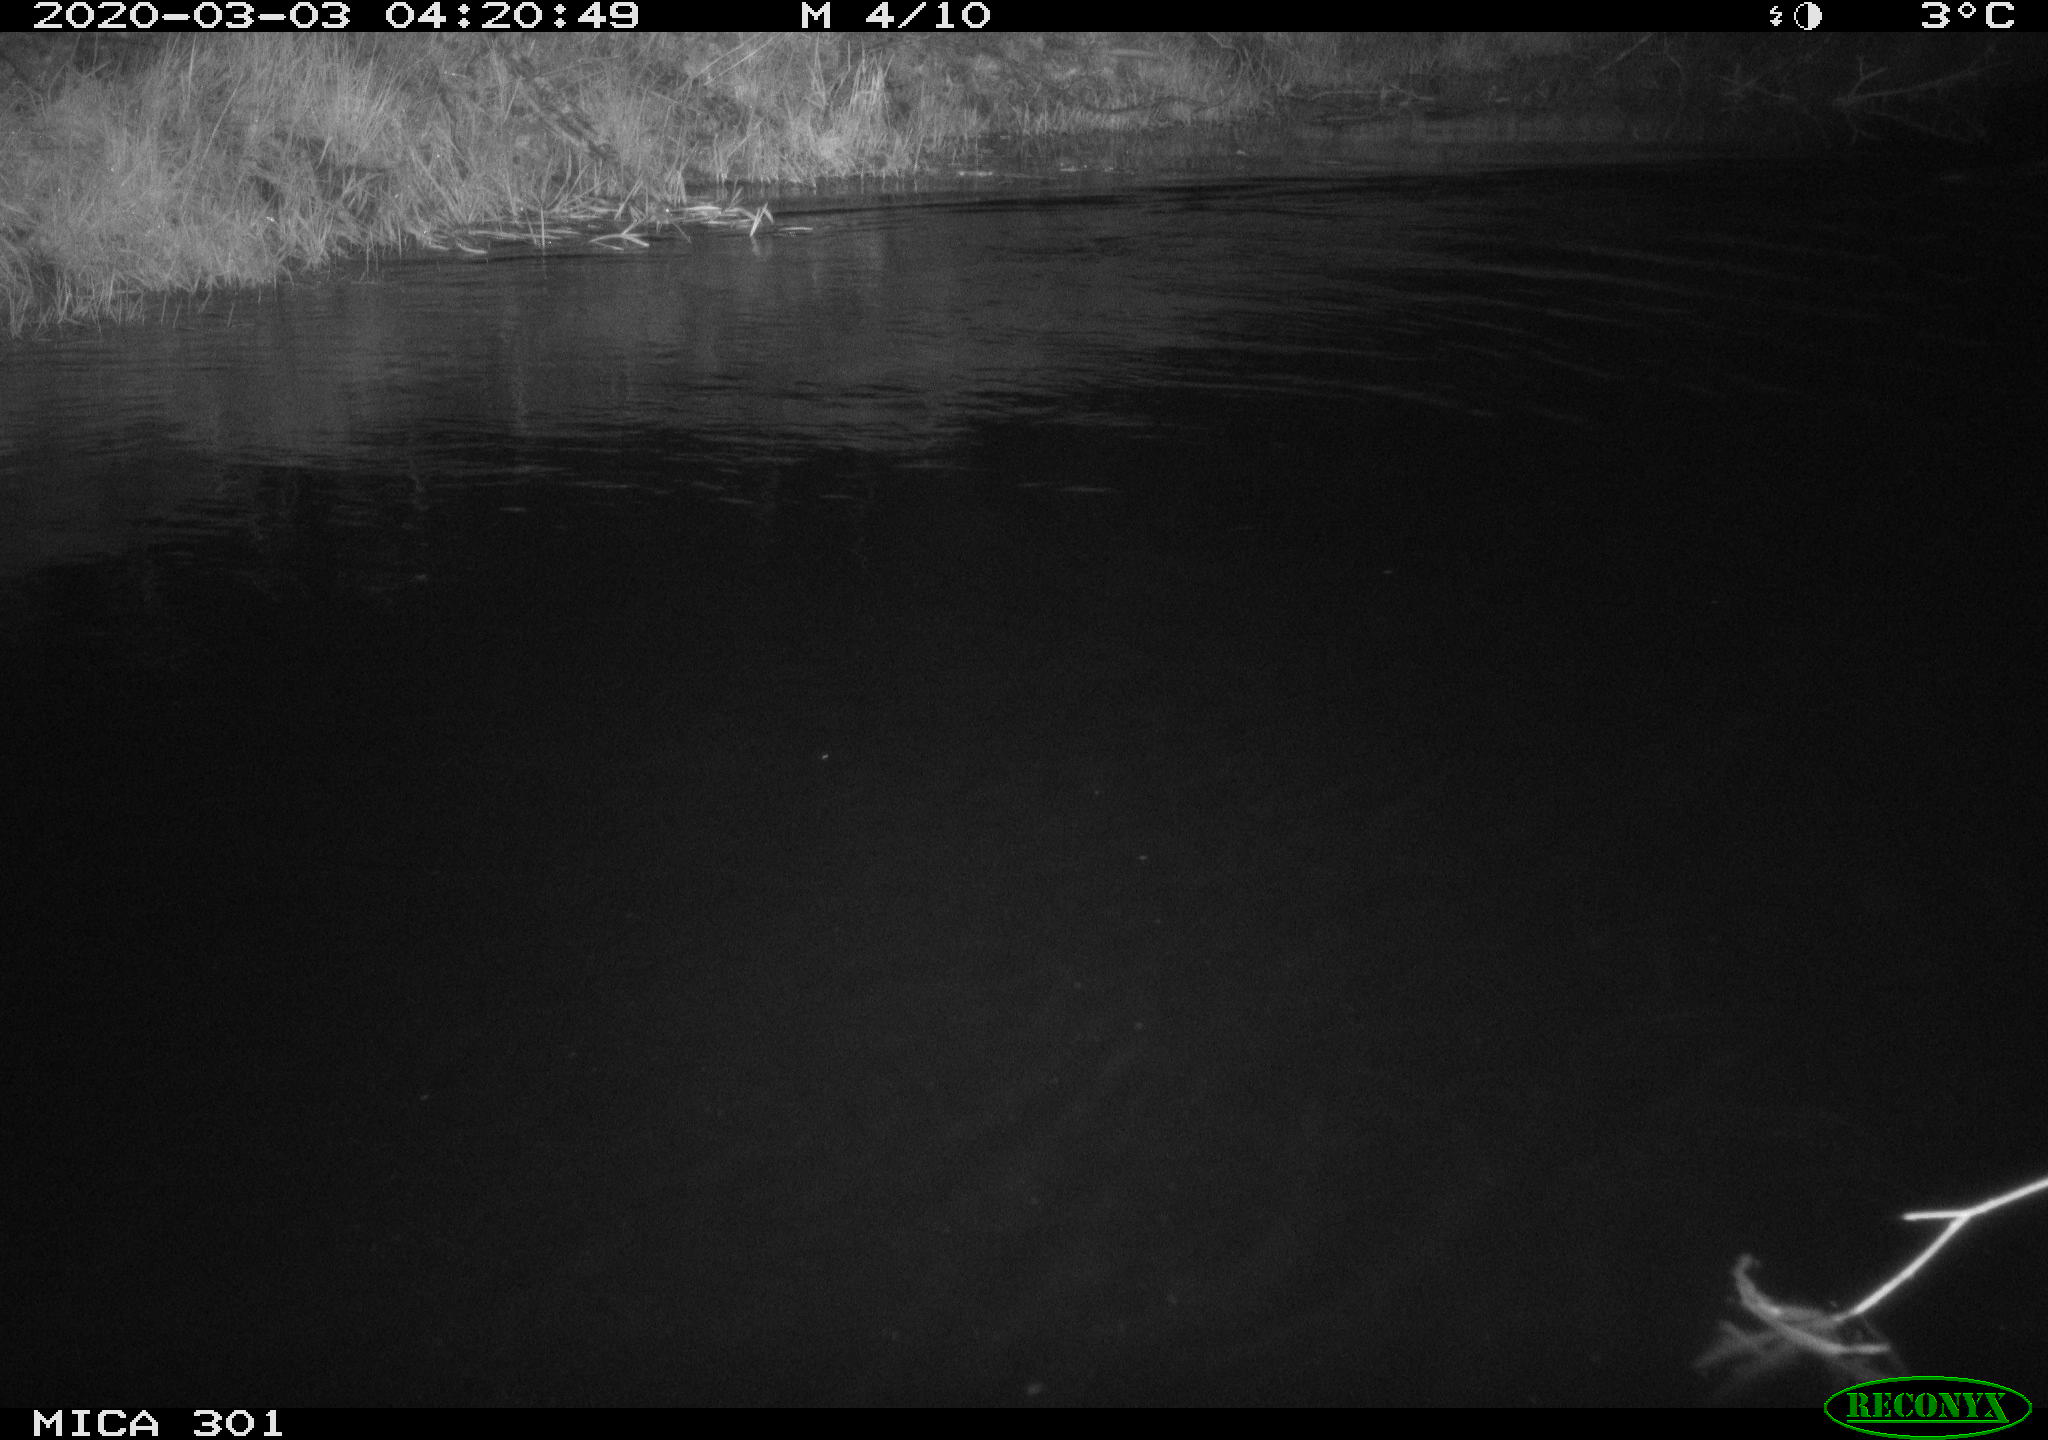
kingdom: Animalia
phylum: Chordata
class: Mammalia
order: Rodentia
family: Castoridae
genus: Castor
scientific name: Castor fiber
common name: Eurasian beaver
